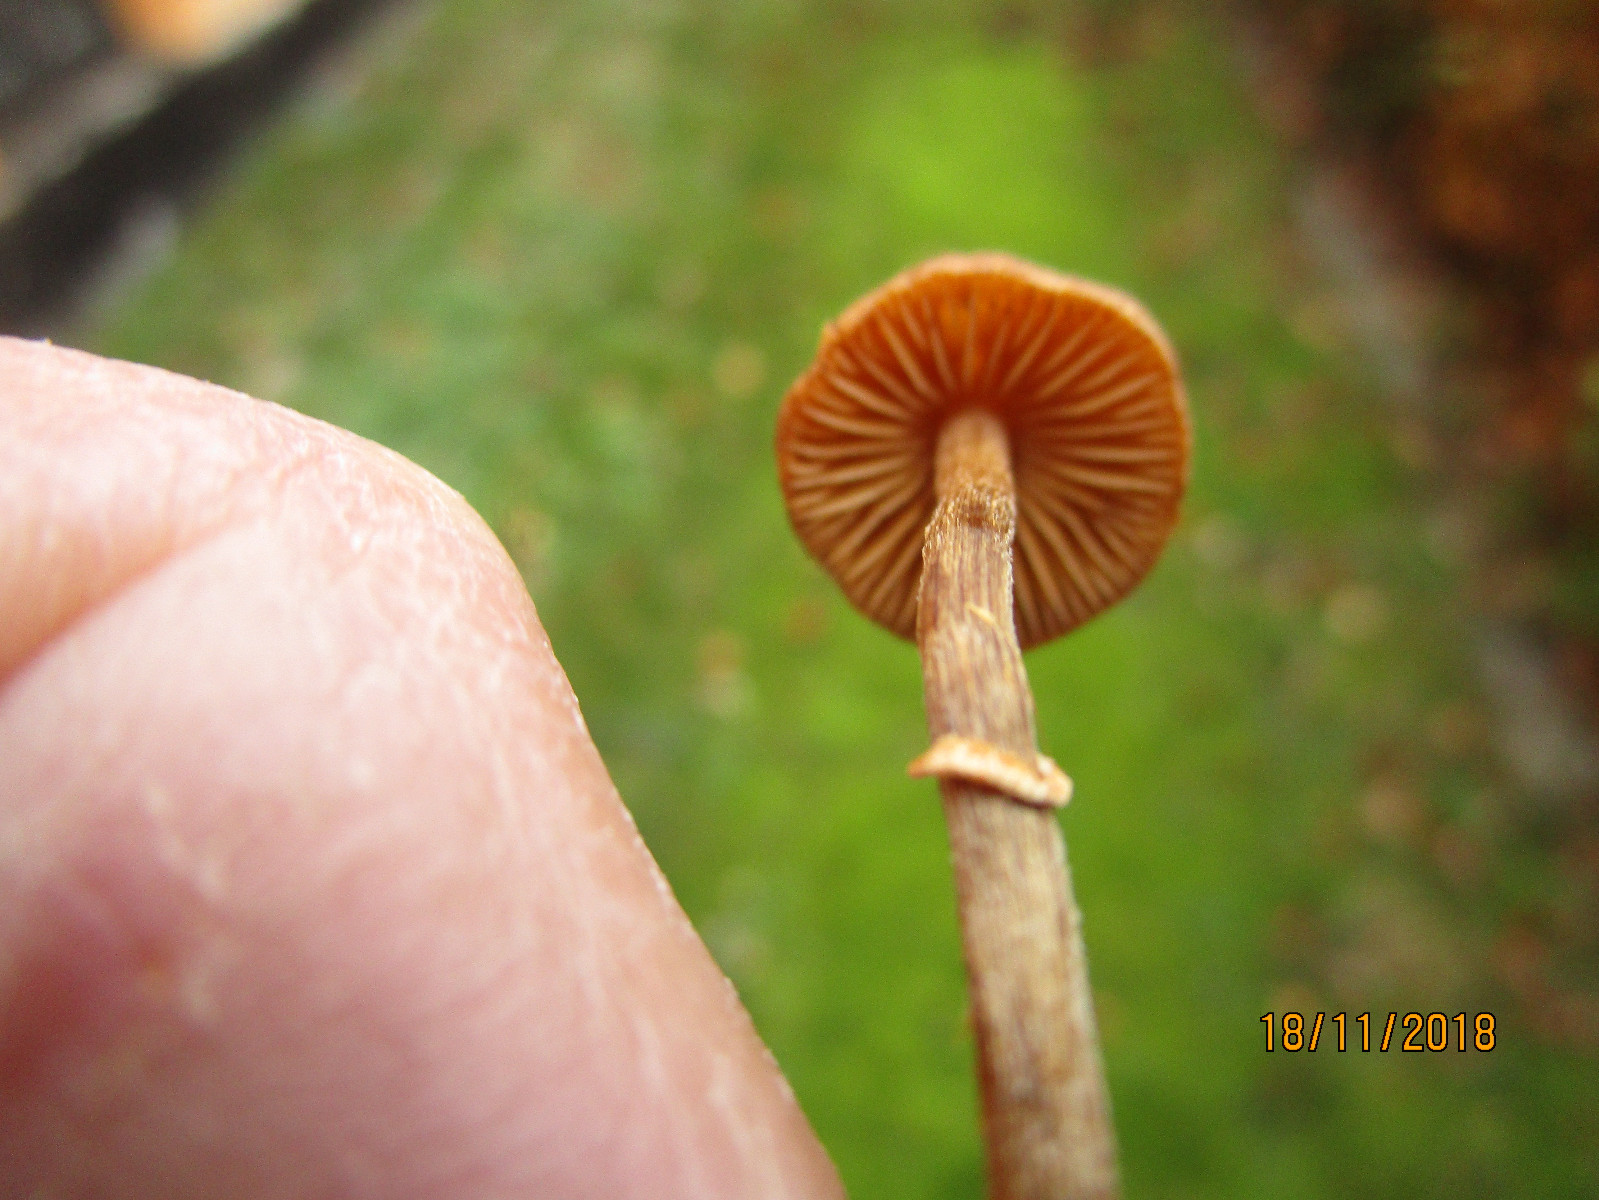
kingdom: Fungi
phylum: Basidiomycota
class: Agaricomycetes
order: Agaricales
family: Bolbitiaceae
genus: Pholiotina
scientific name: Pholiotina
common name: dansehat
